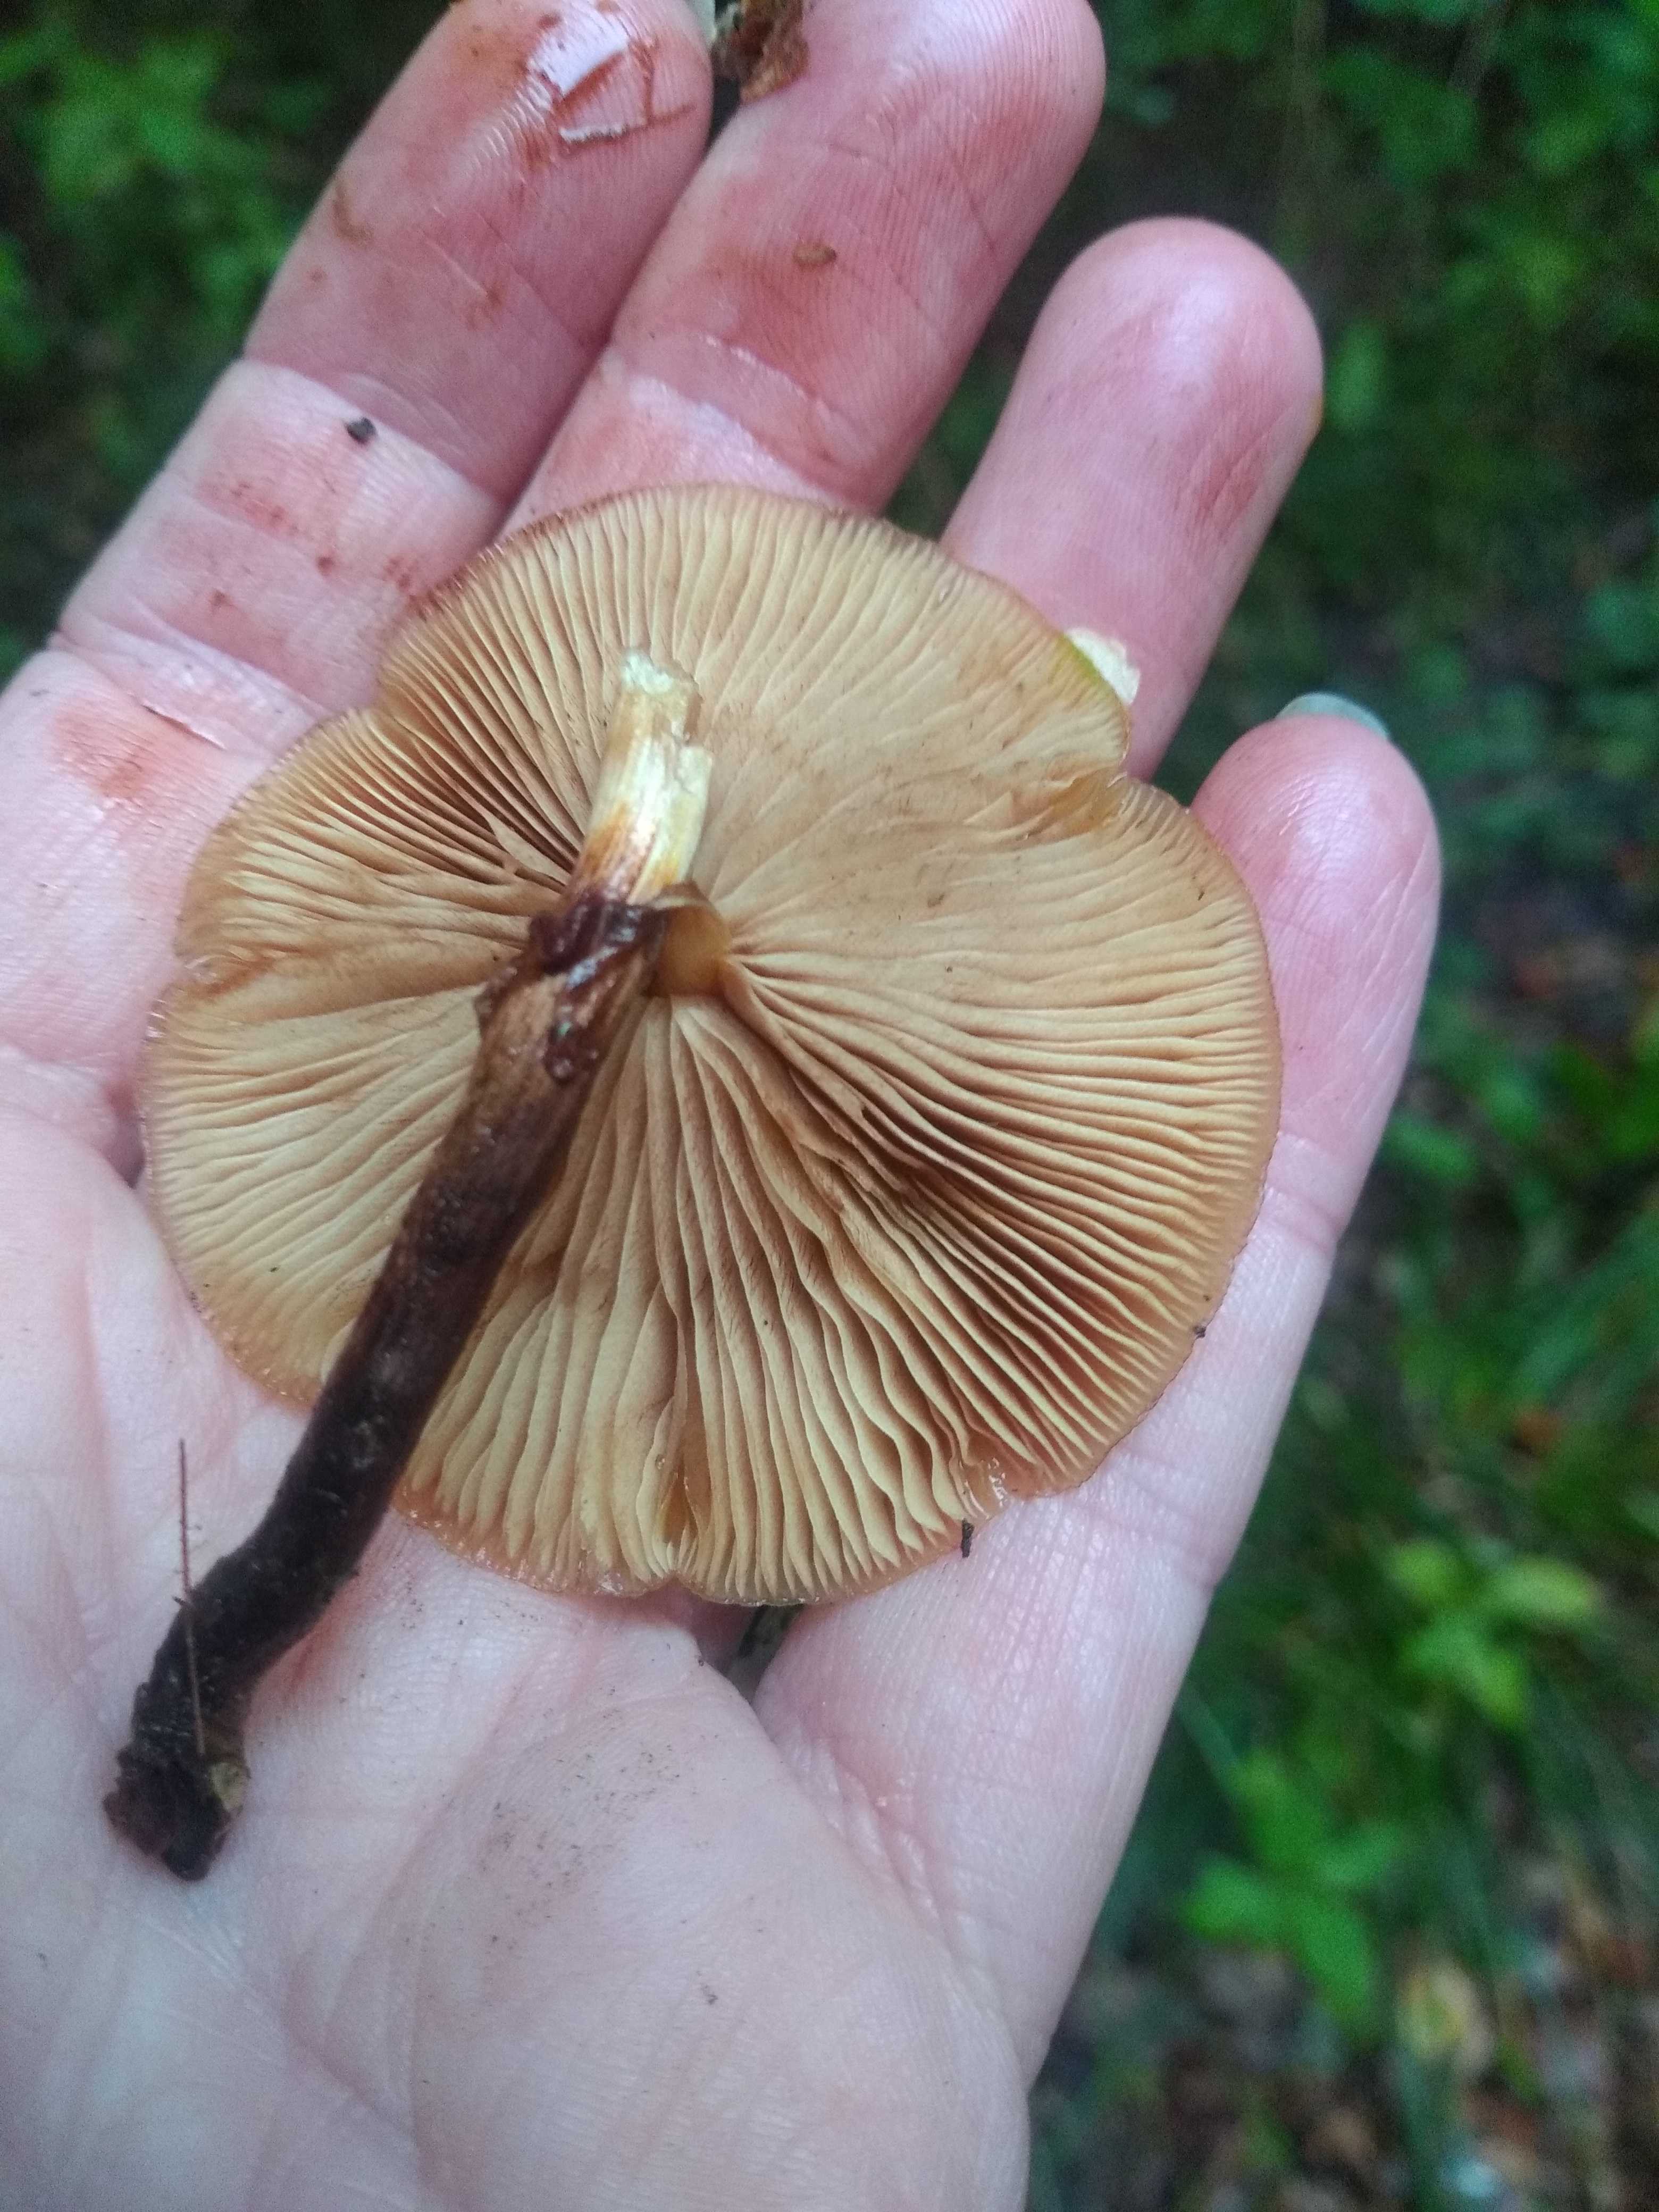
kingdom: Fungi
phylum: Basidiomycota
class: Agaricomycetes
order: Agaricales
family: Strophariaceae
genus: Kuehneromyces
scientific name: Kuehneromyces mutabilis
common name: foranderlig skælhat
